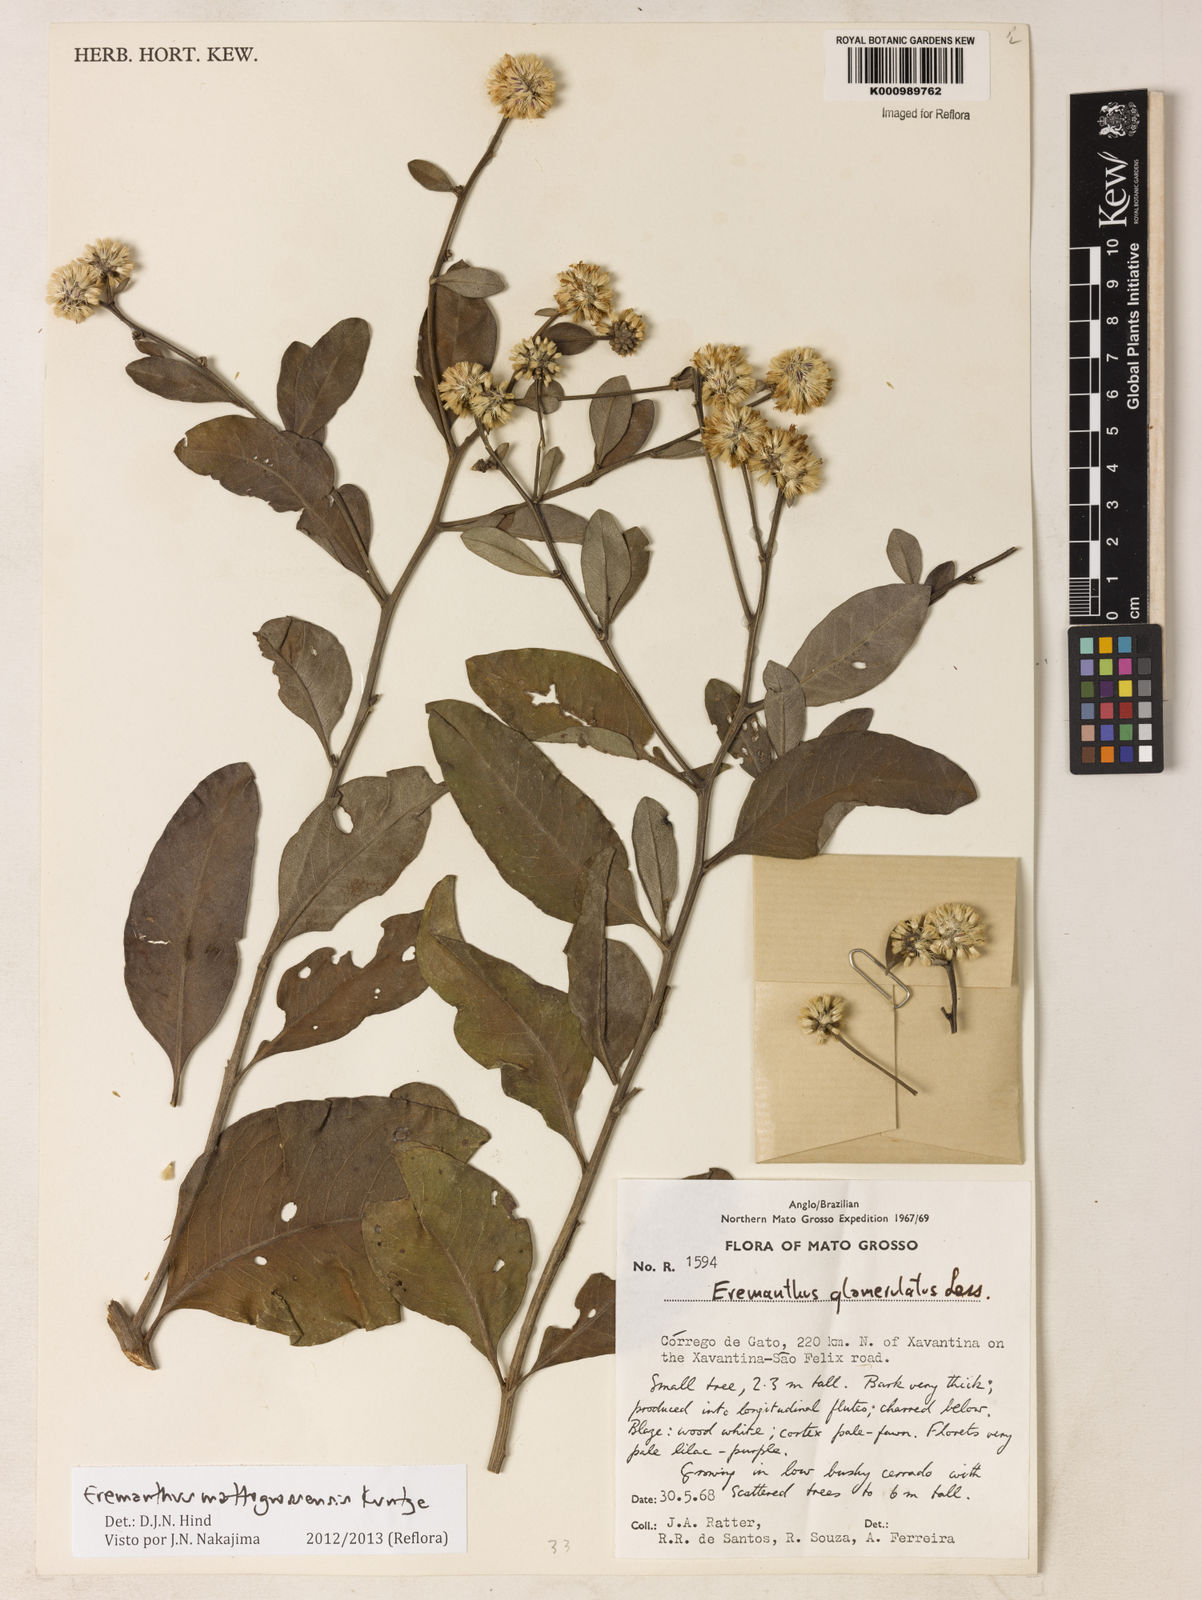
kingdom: Plantae
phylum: Tracheophyta
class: Magnoliopsida
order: Asterales
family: Asteraceae
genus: Eremanthus
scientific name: Eremanthus mattogrossensis
